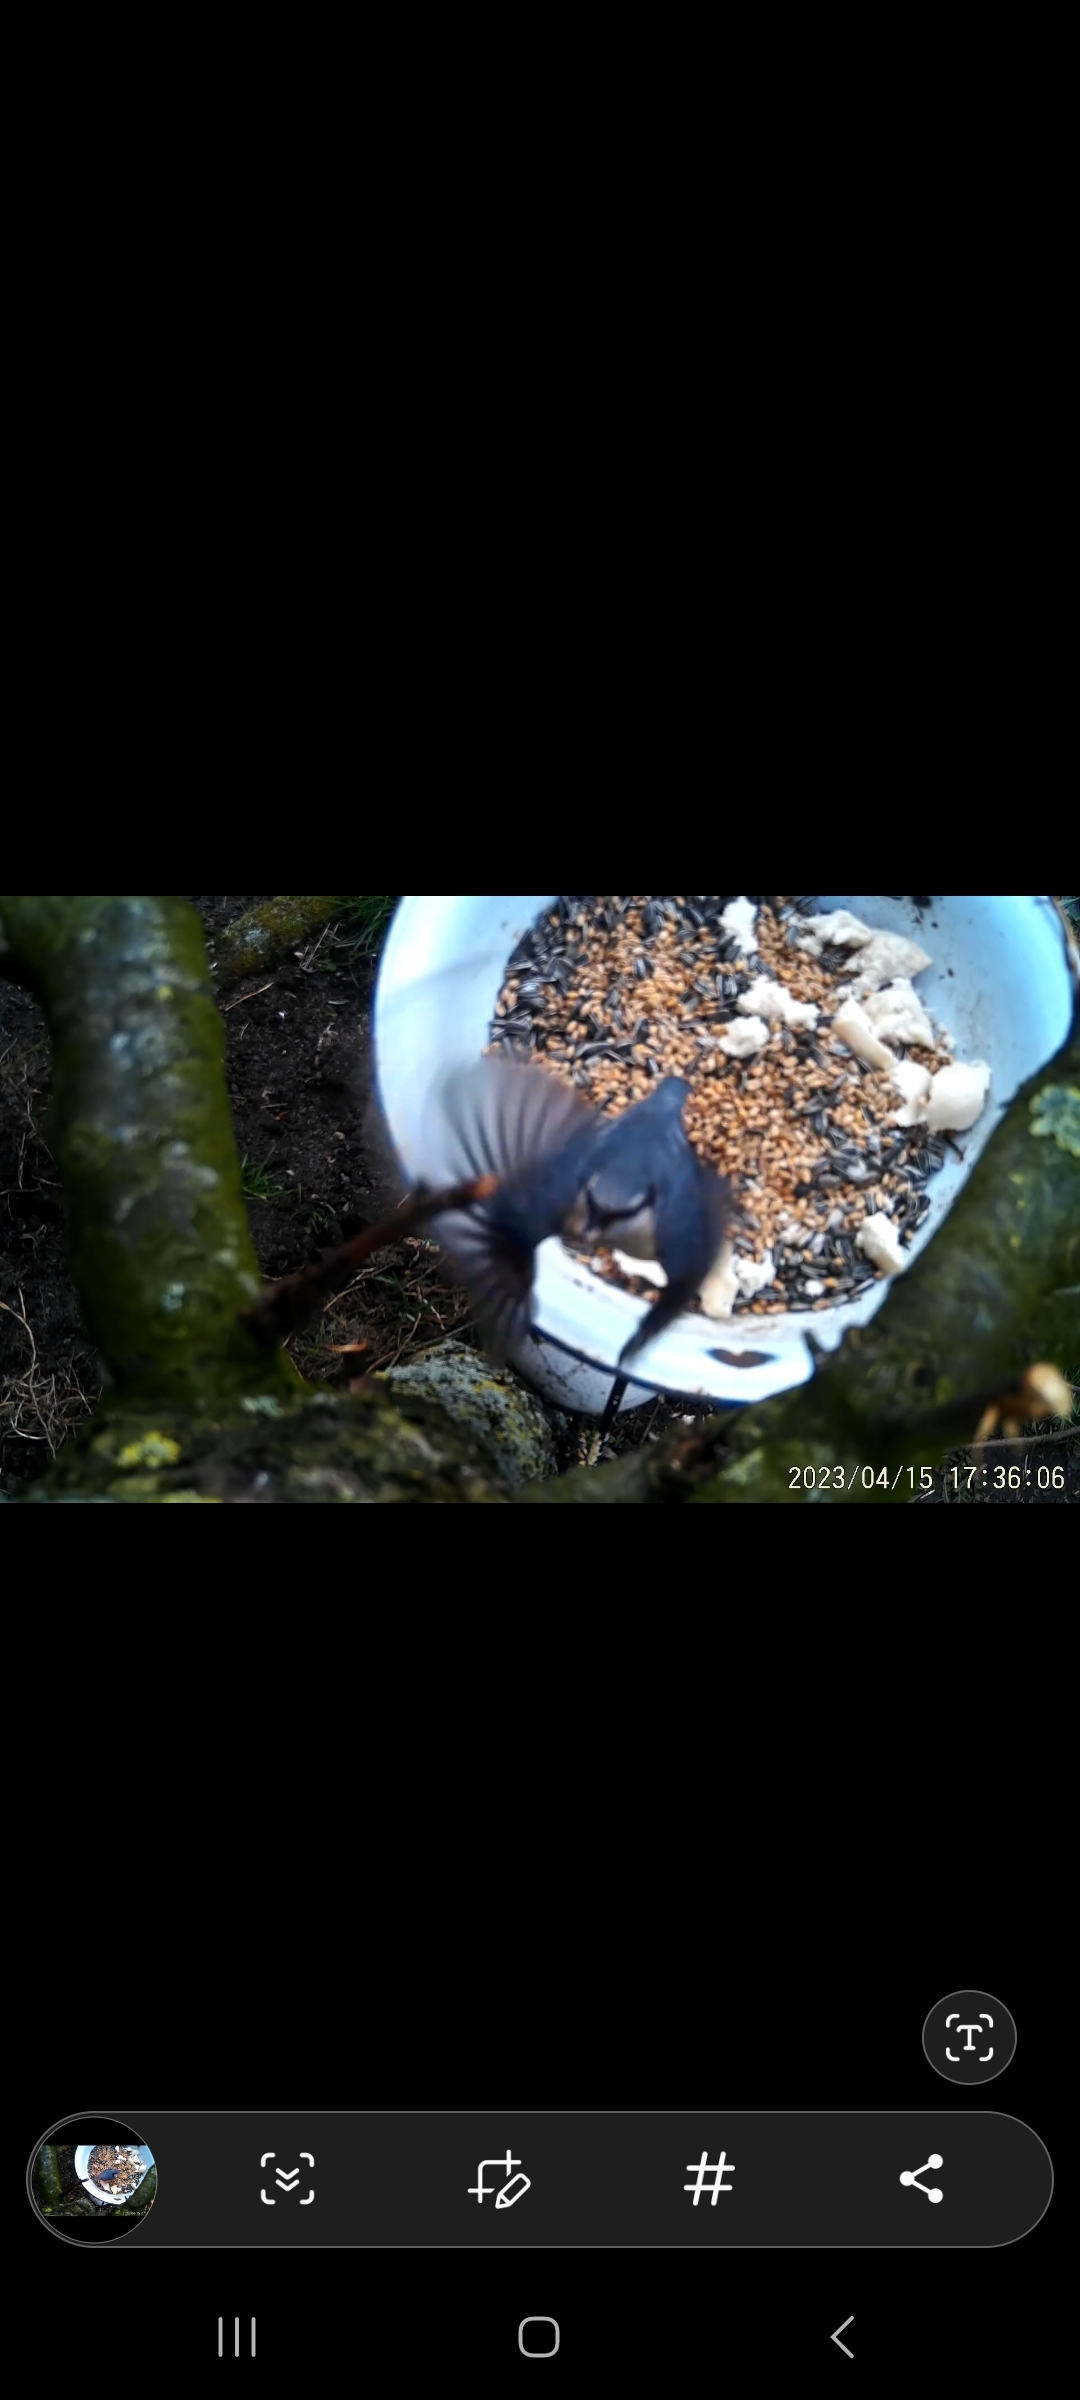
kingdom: Animalia
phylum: Chordata
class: Aves
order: Passeriformes
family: Sittidae
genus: Sitta
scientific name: Sitta europaea
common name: Spætmejse
